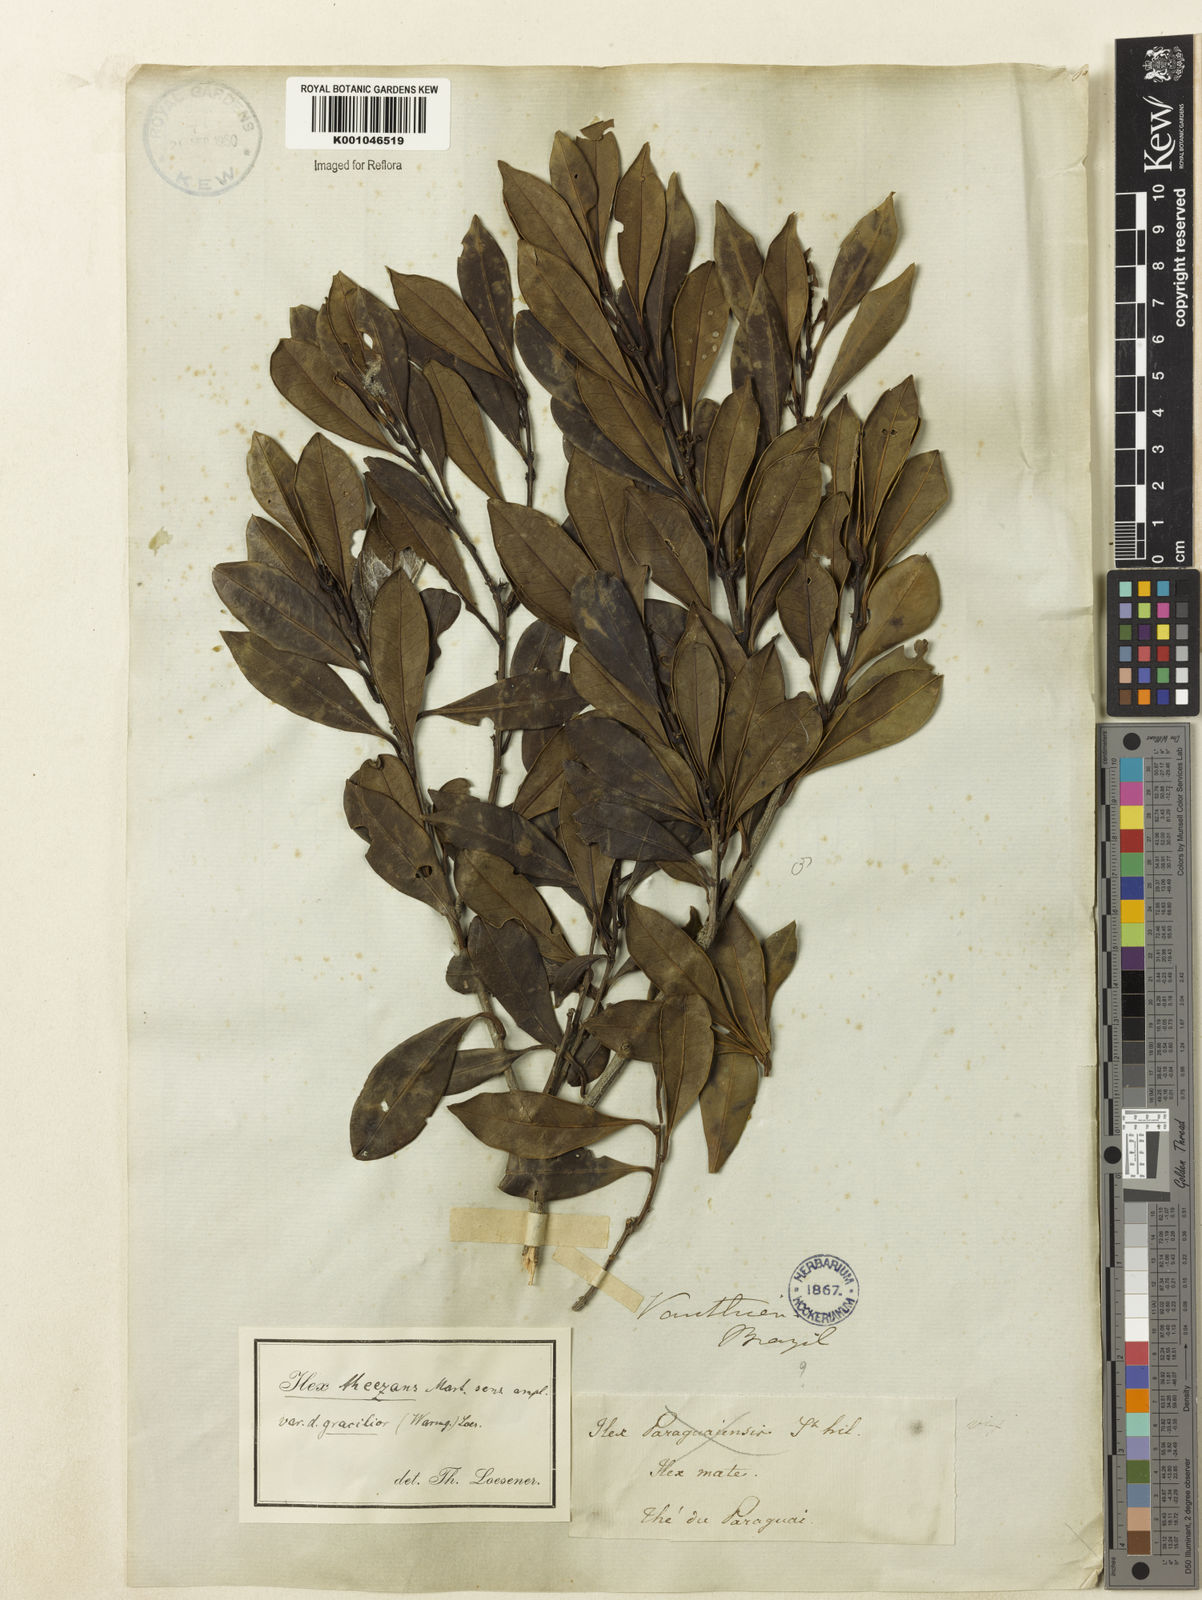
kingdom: Plantae
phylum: Tracheophyta
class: Magnoliopsida
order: Aquifoliales
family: Aquifoliaceae
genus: Ilex
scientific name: Ilex gracilior
